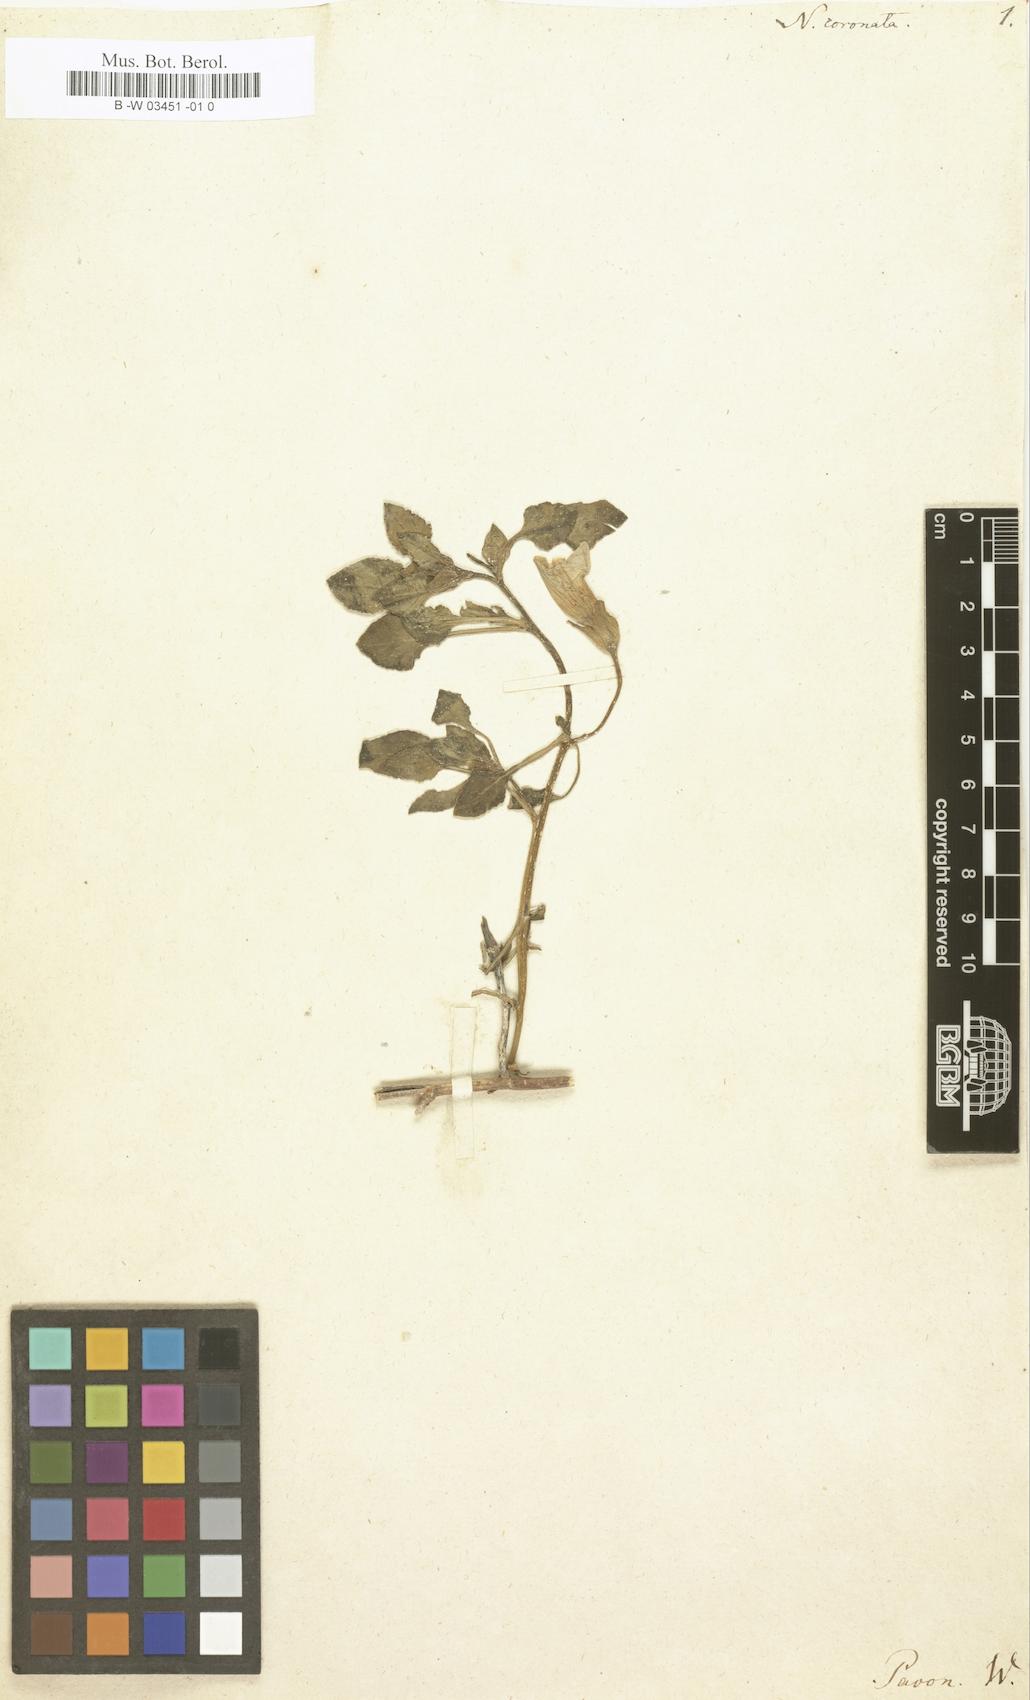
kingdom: Plantae
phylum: Tracheophyta
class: Magnoliopsida
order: Solanales
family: Solanaceae
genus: Nolana
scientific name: Nolana humifusa
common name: Trailing chilean-bellflower
